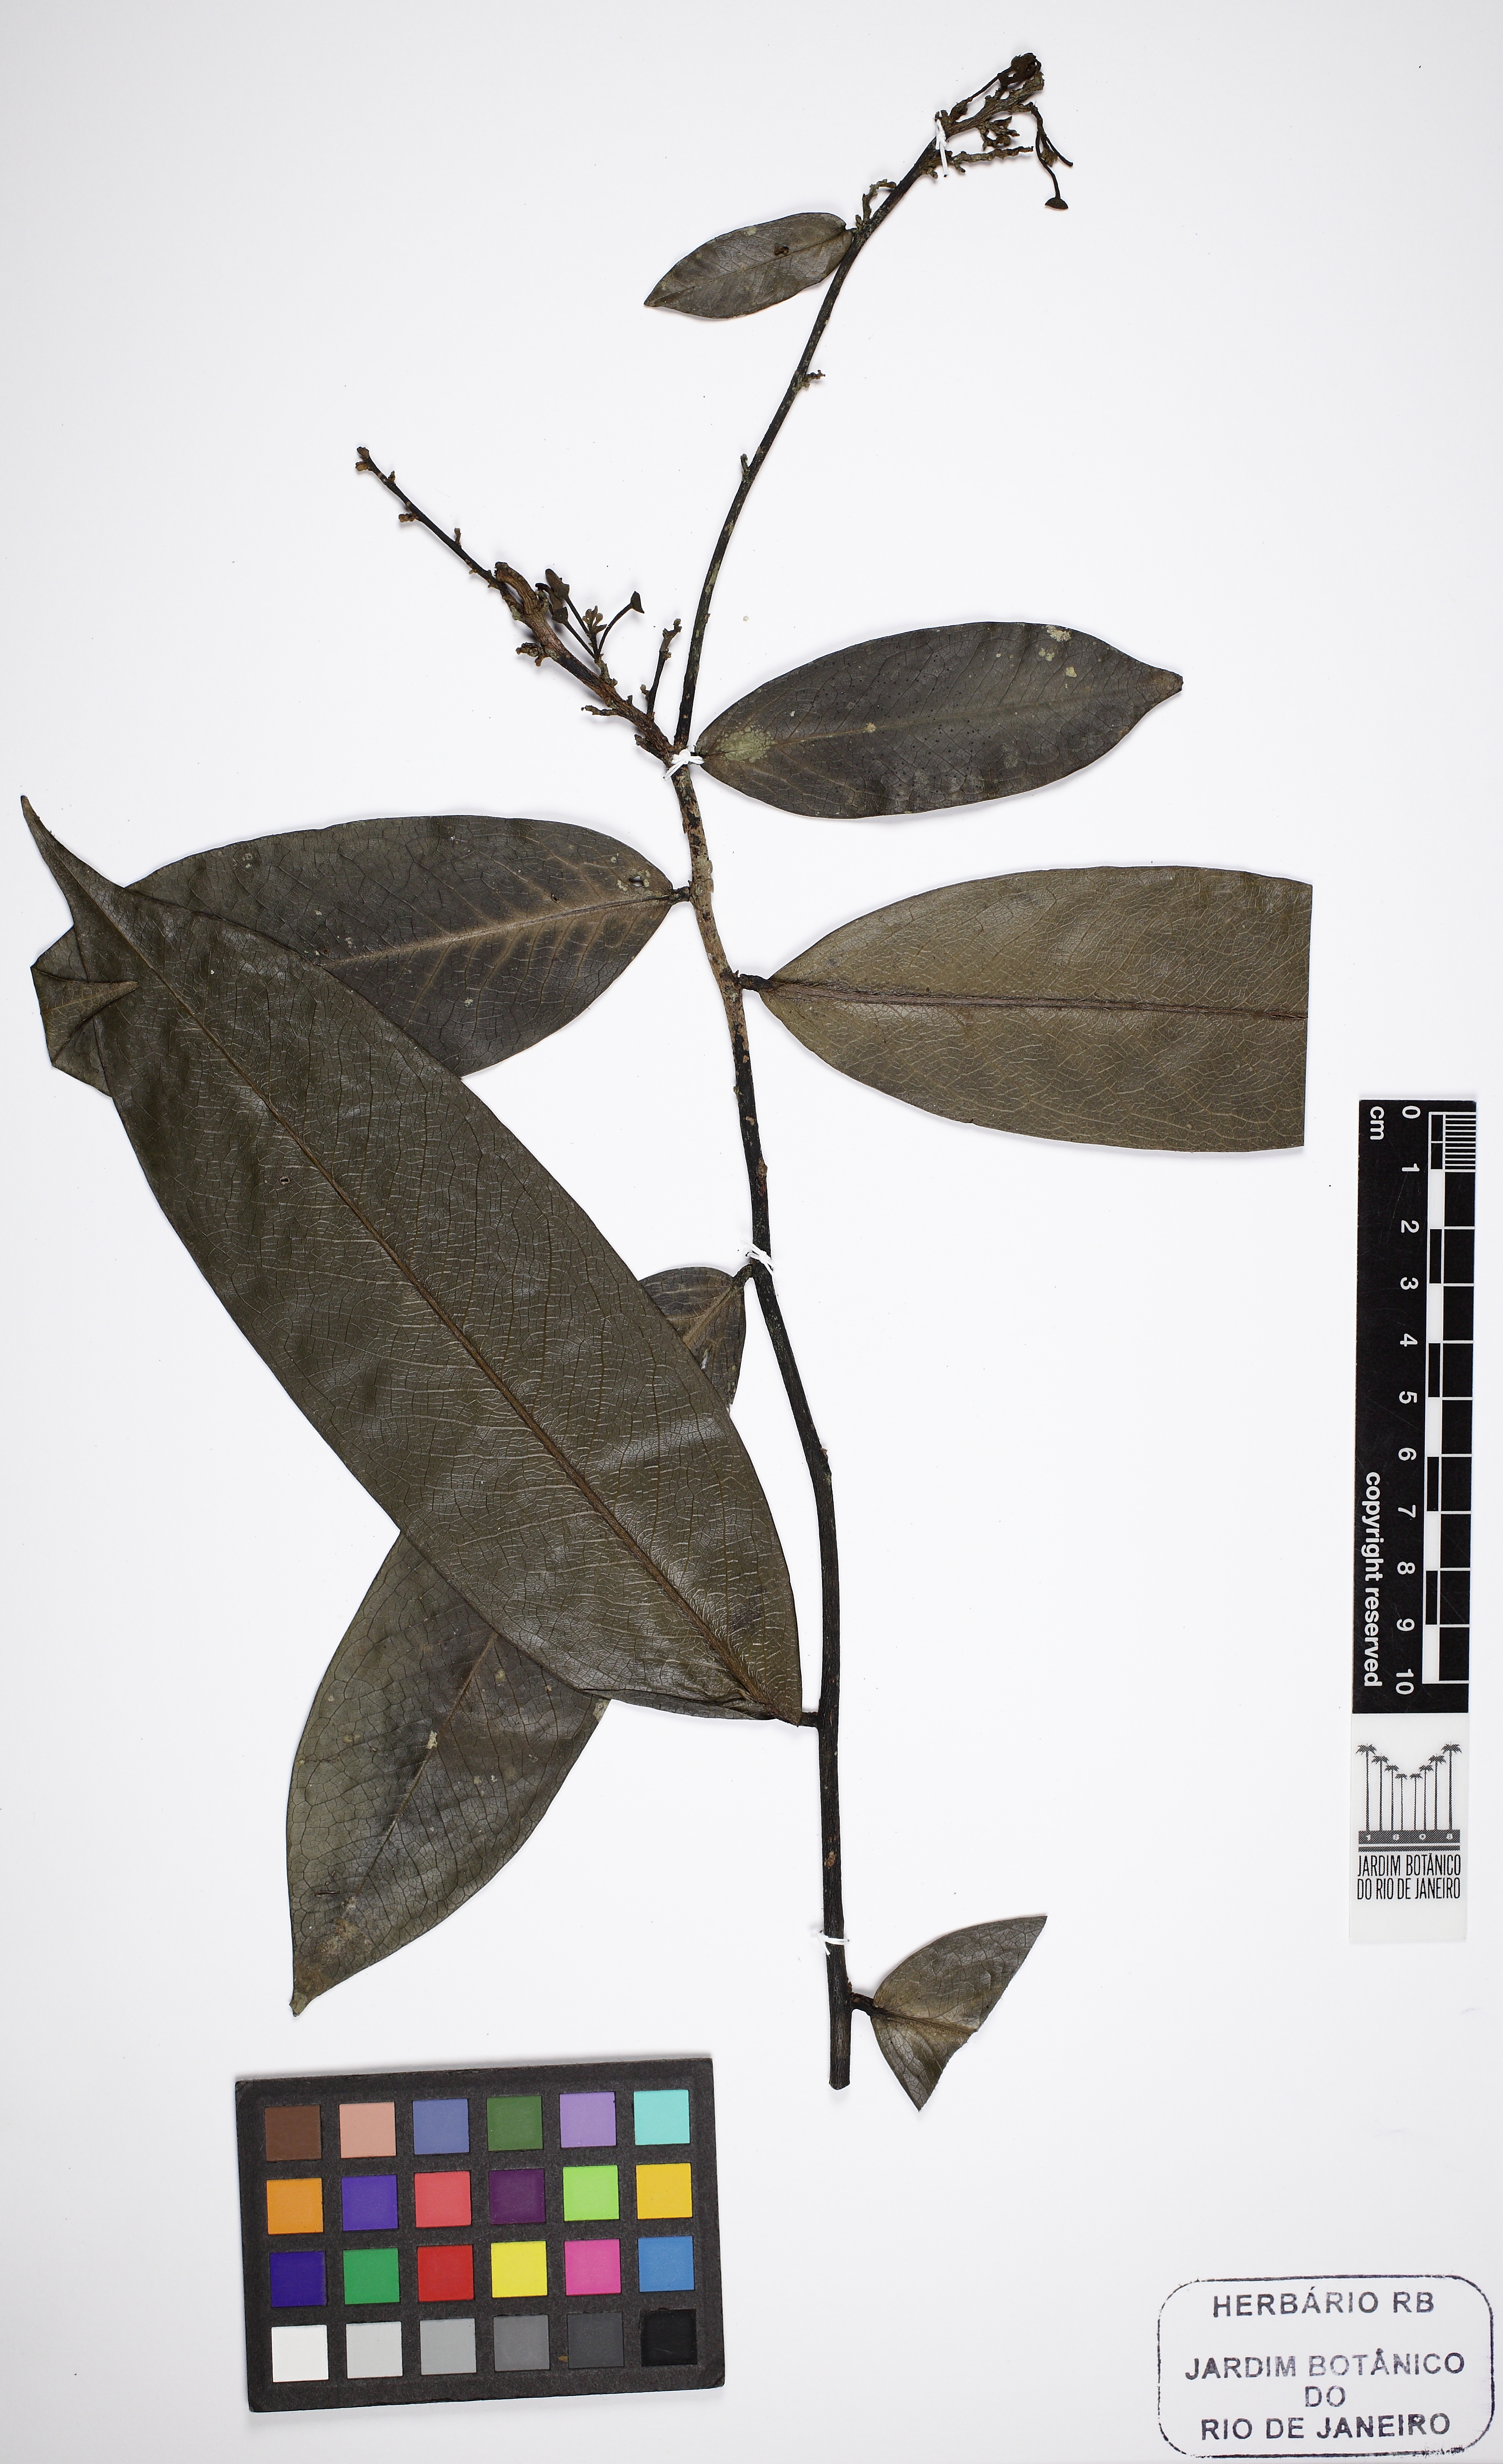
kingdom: Plantae
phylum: Tracheophyta
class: Magnoliopsida
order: Magnoliales
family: Annonaceae
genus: Hornschuchia
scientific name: Hornschuchia obliqua
